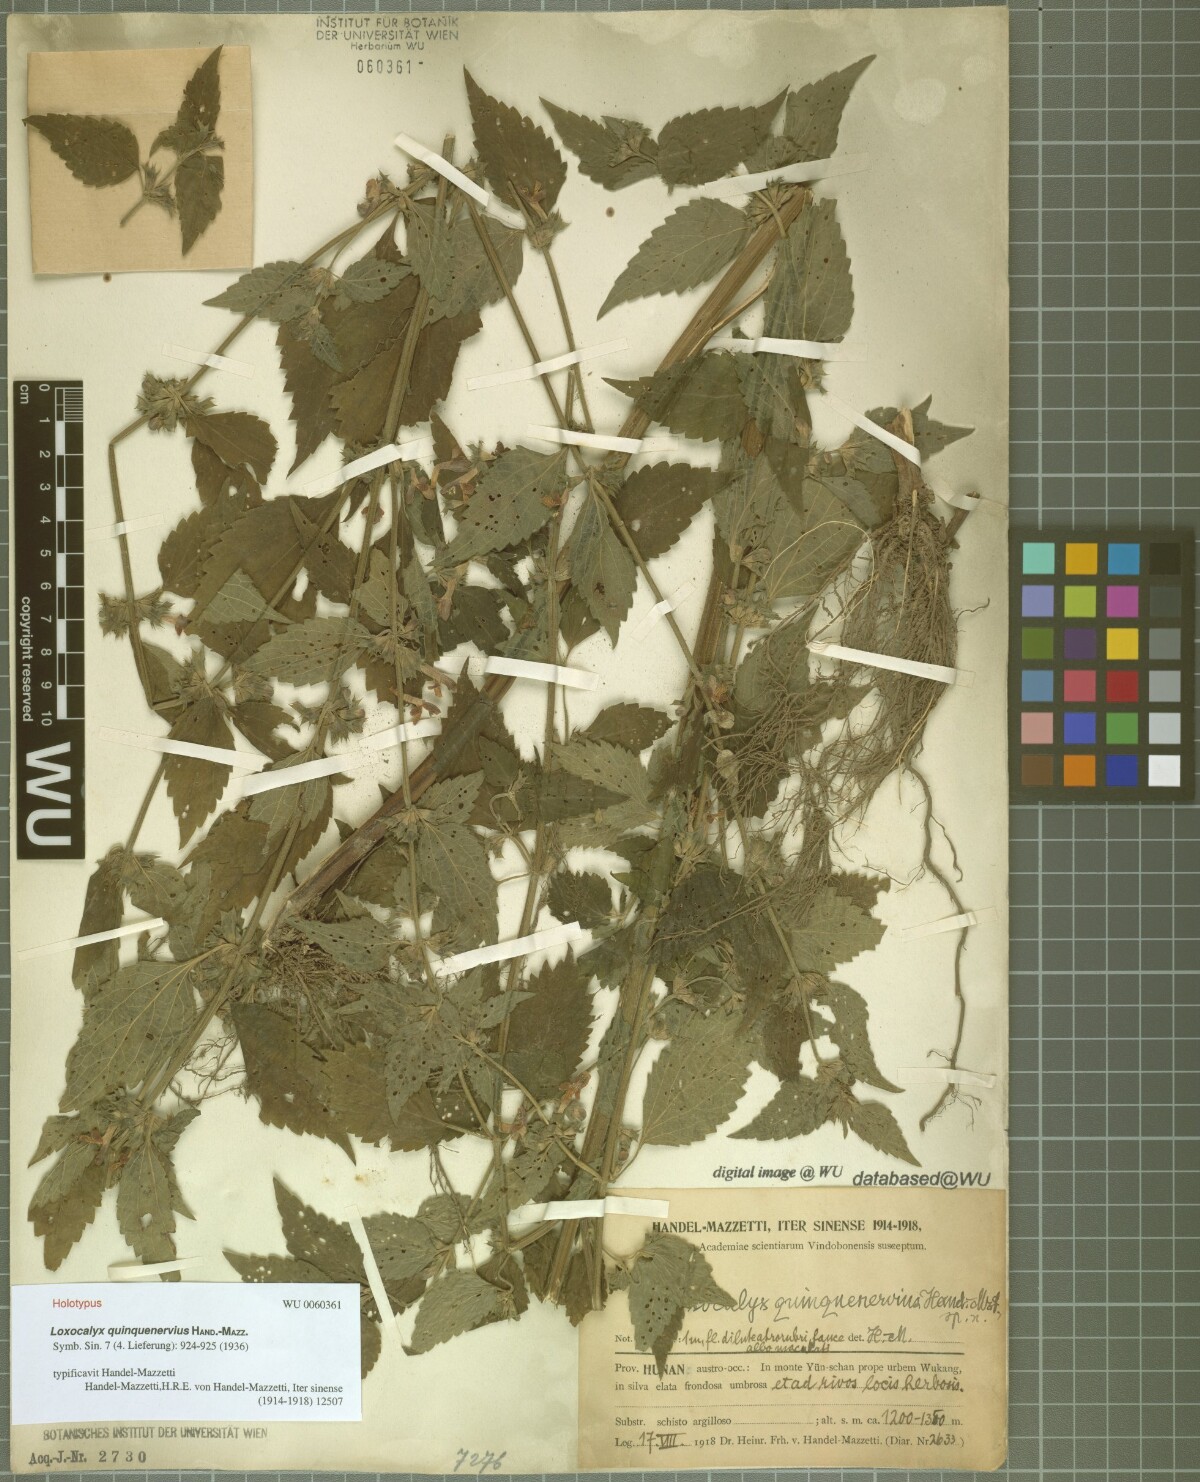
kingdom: Plantae
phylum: Tracheophyta
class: Magnoliopsida
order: Lamiales
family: Lamiaceae
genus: Loxocalyx
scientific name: Loxocalyx quinquenervius
